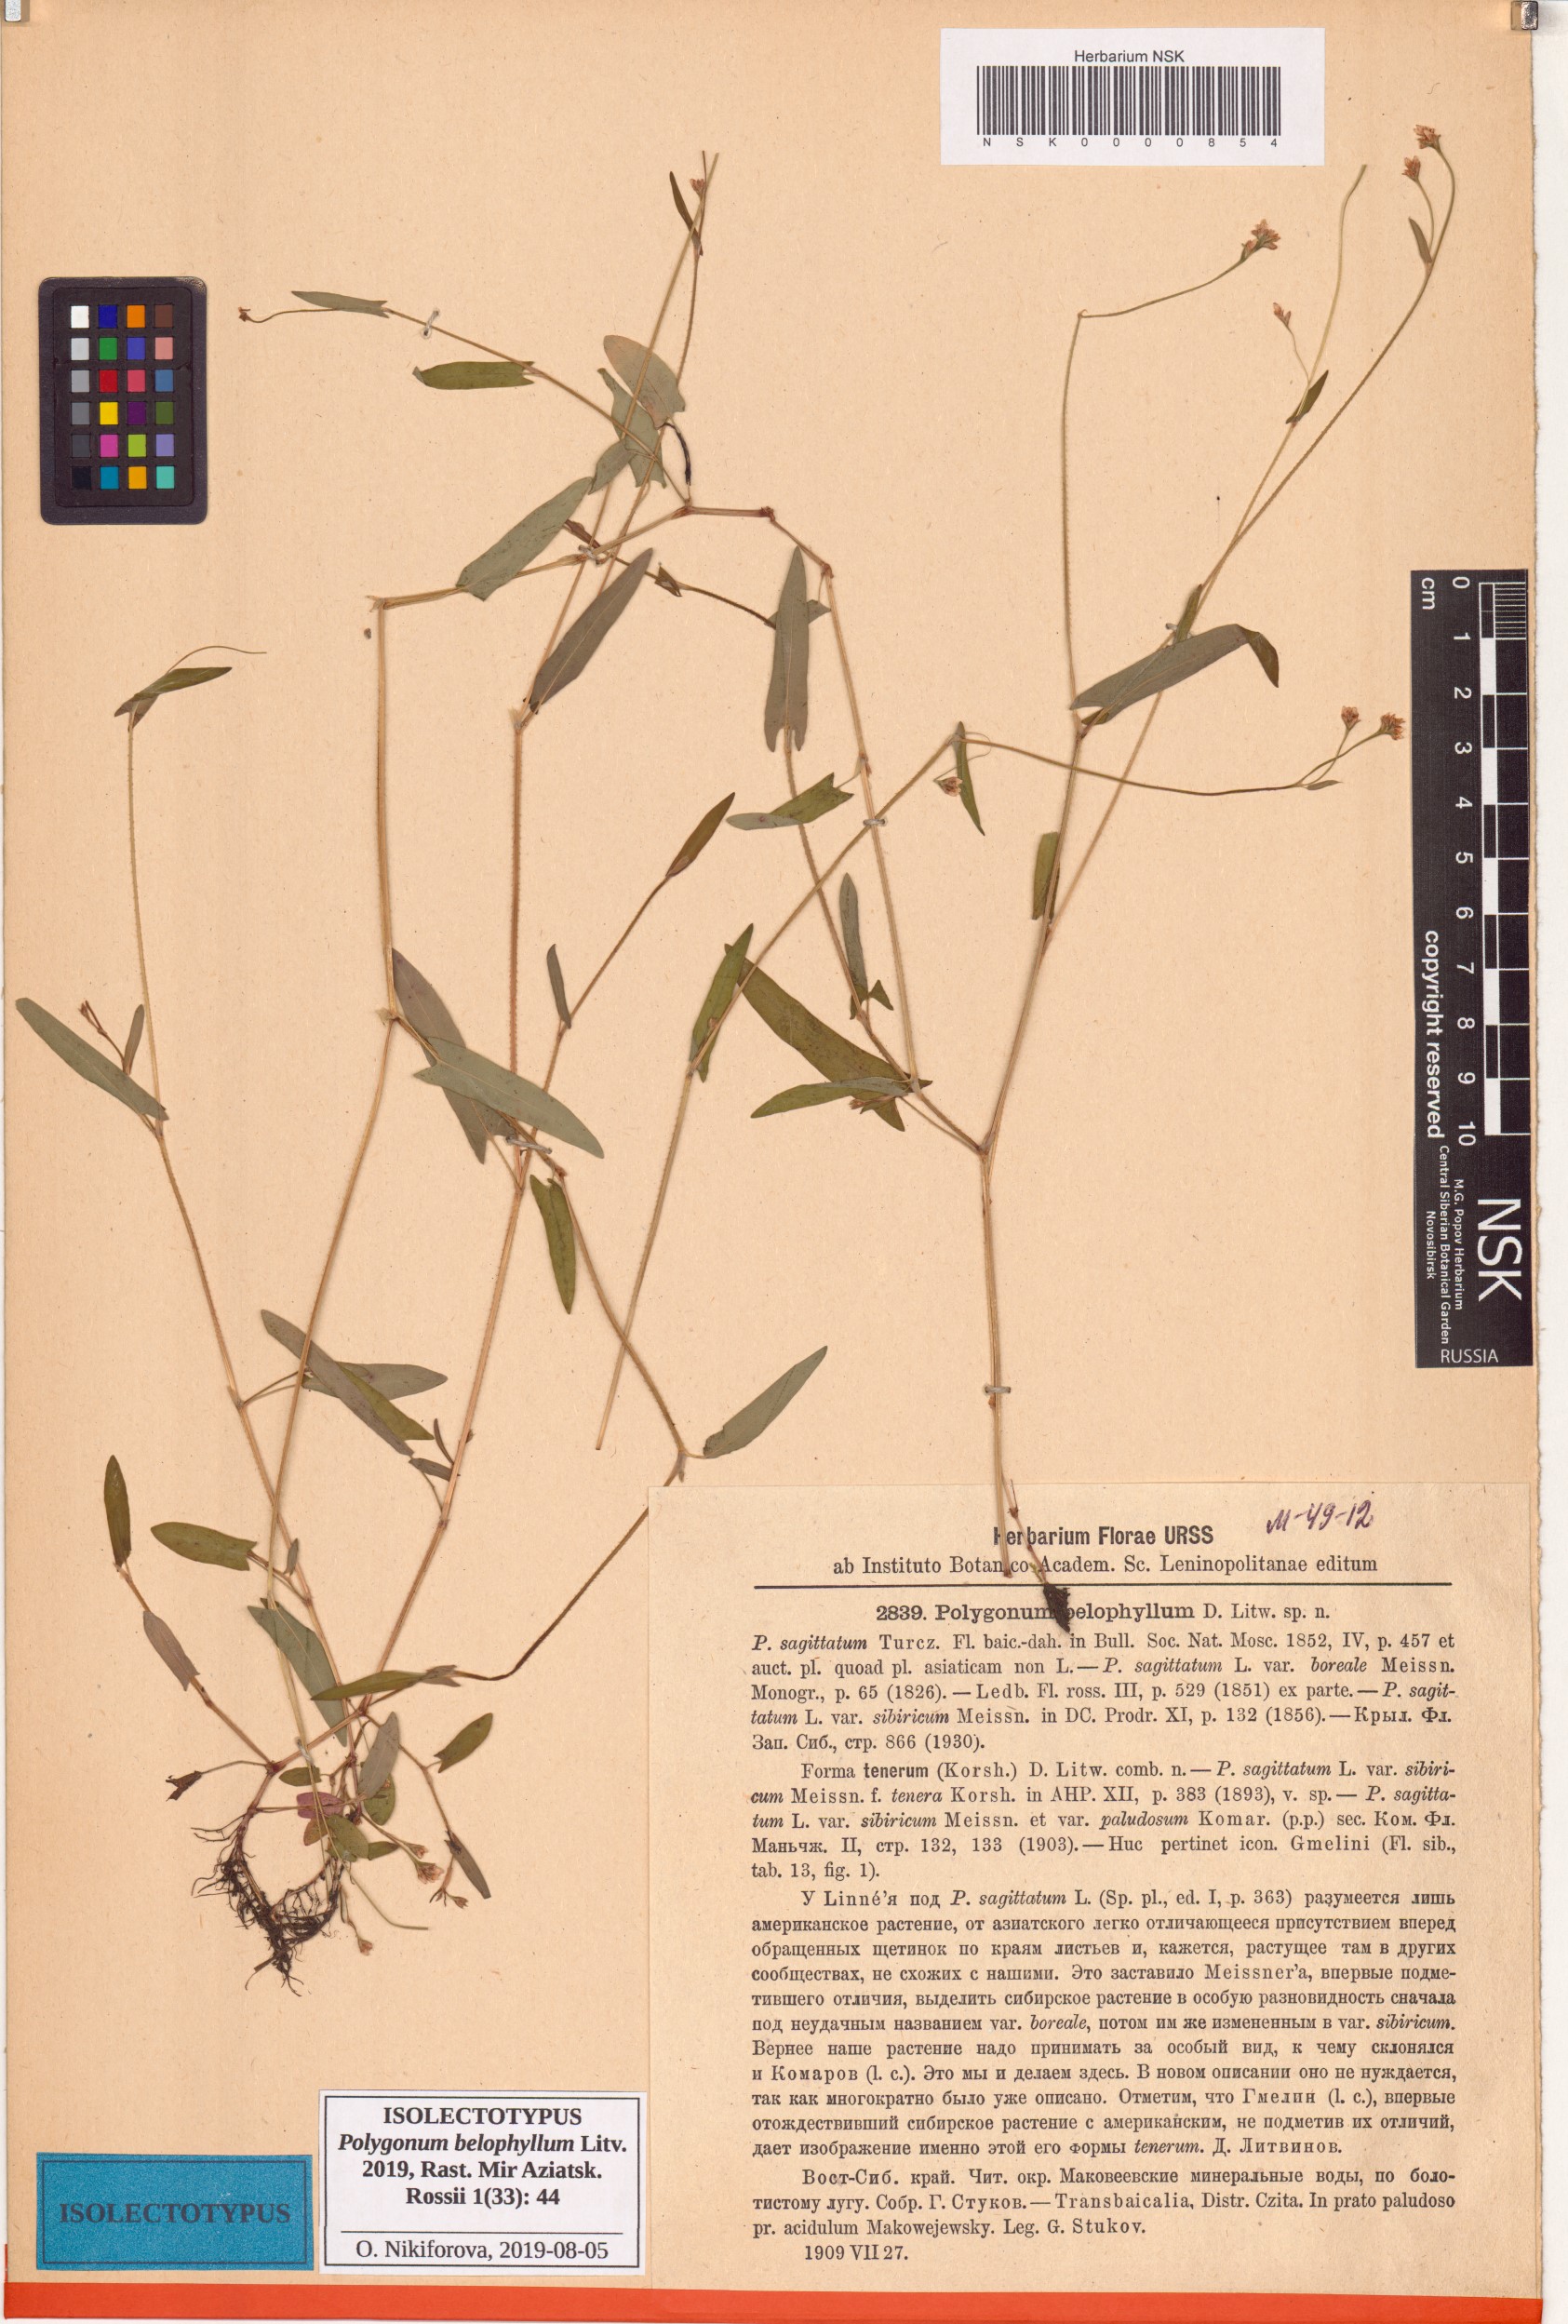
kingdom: Plantae
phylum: Tracheophyta
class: Magnoliopsida
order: Caryophyllales
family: Polygonaceae
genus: Persicaria
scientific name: Persicaria sagittata
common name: American tearthumb
